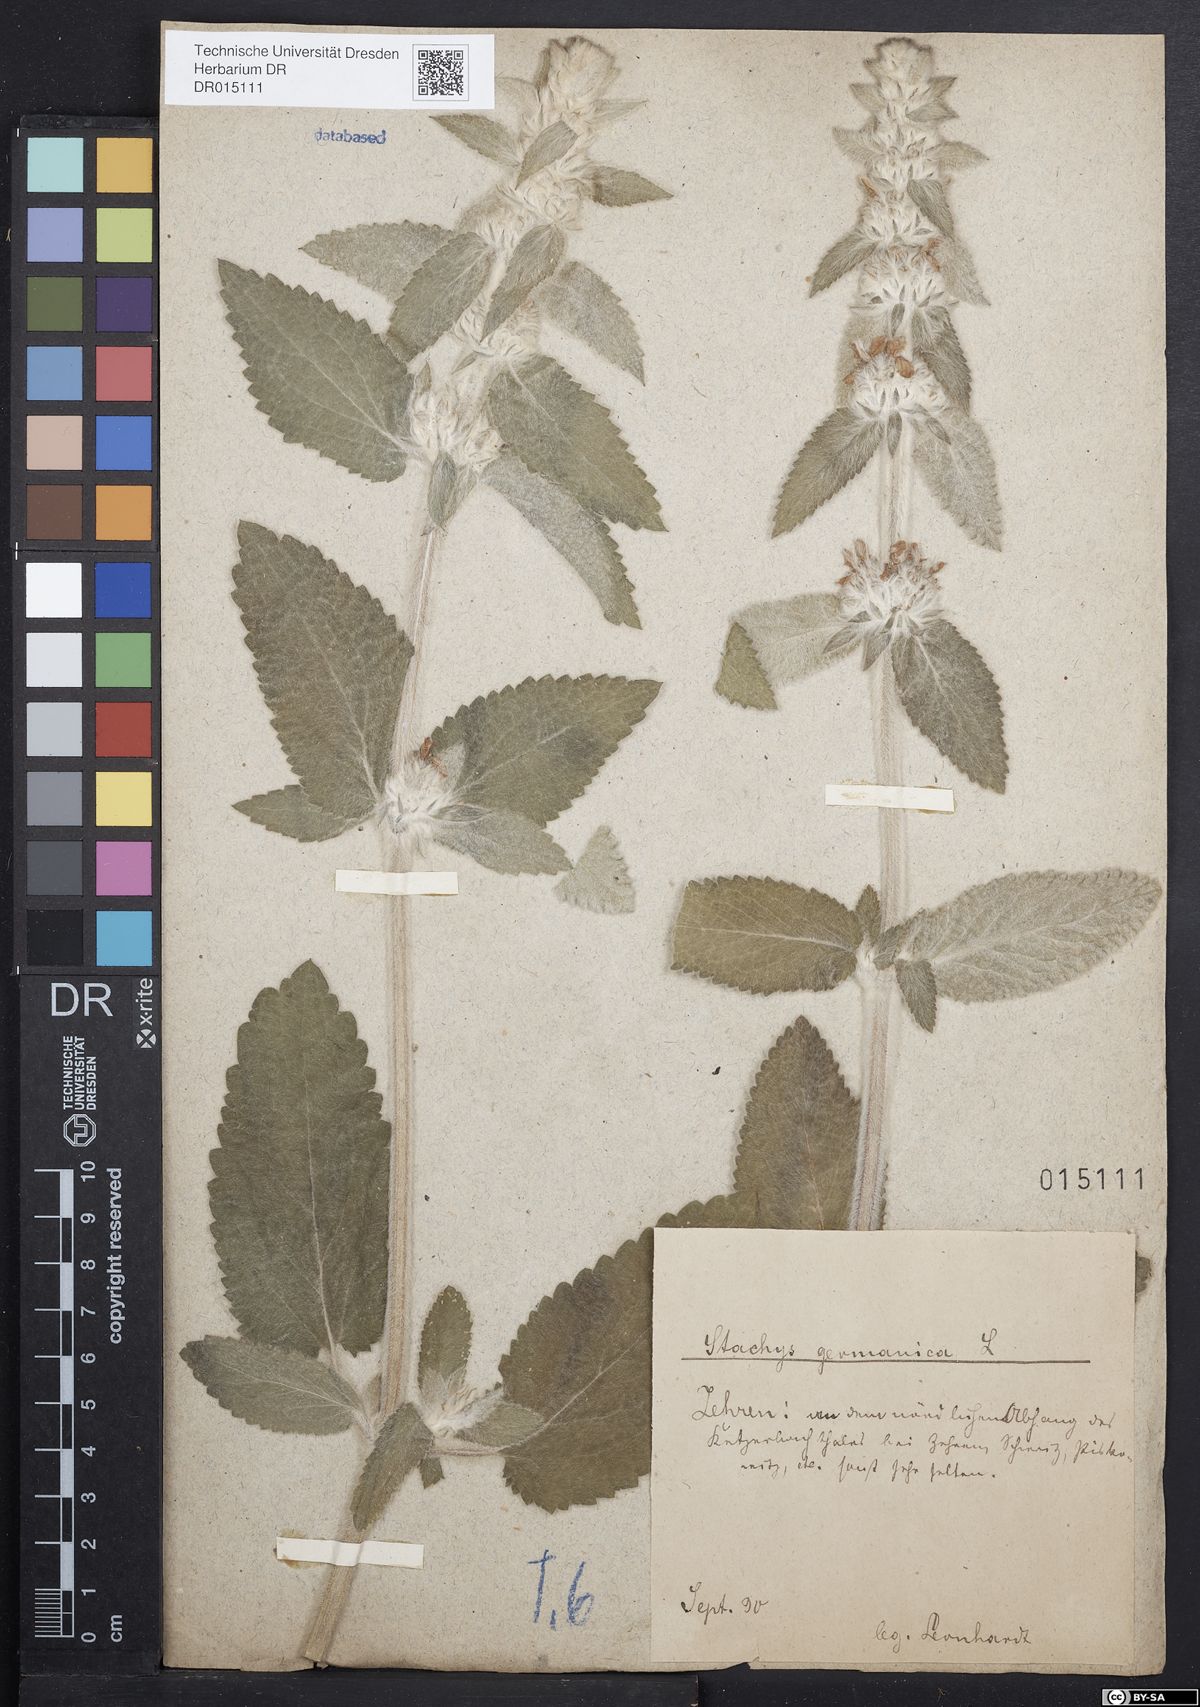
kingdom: Plantae
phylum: Tracheophyta
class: Magnoliopsida
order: Lamiales
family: Lamiaceae
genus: Stachys
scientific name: Stachys germanica
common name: Downy woundwort
